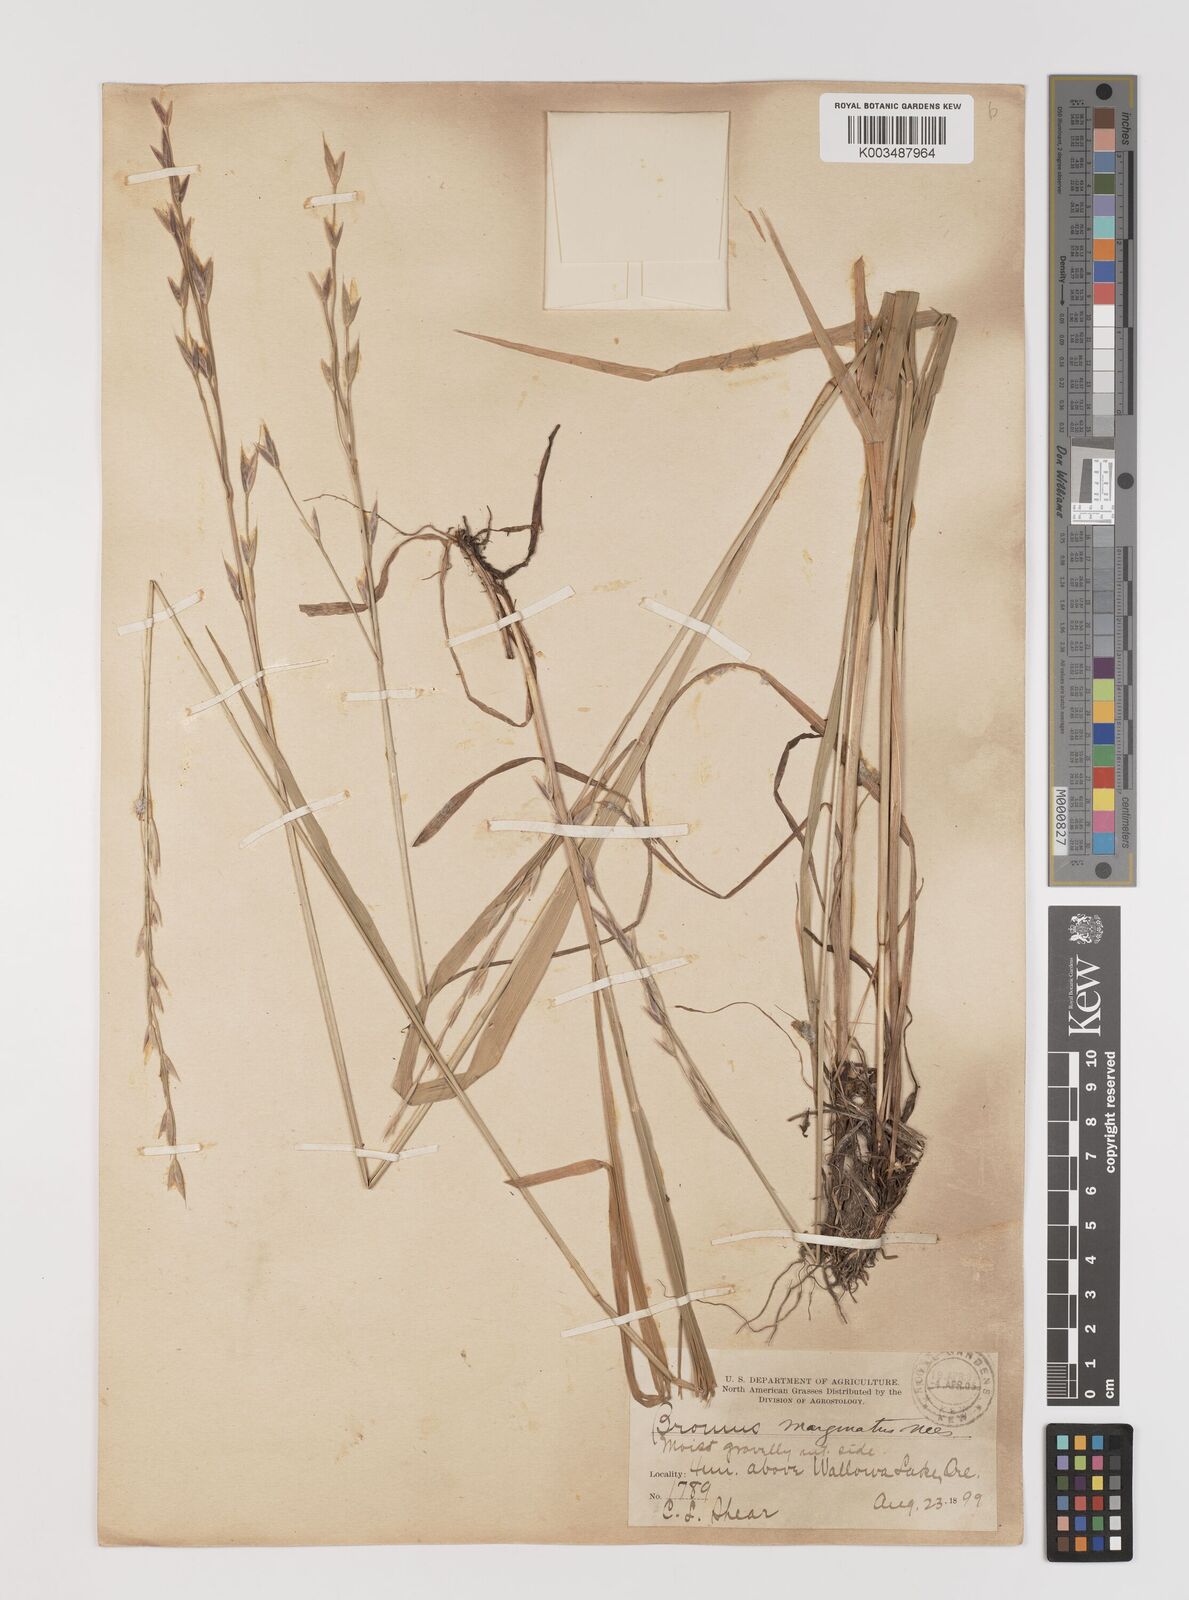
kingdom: Plantae
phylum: Tracheophyta
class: Liliopsida
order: Poales
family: Poaceae
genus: Bromus
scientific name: Bromus marginatus
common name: Western brome
